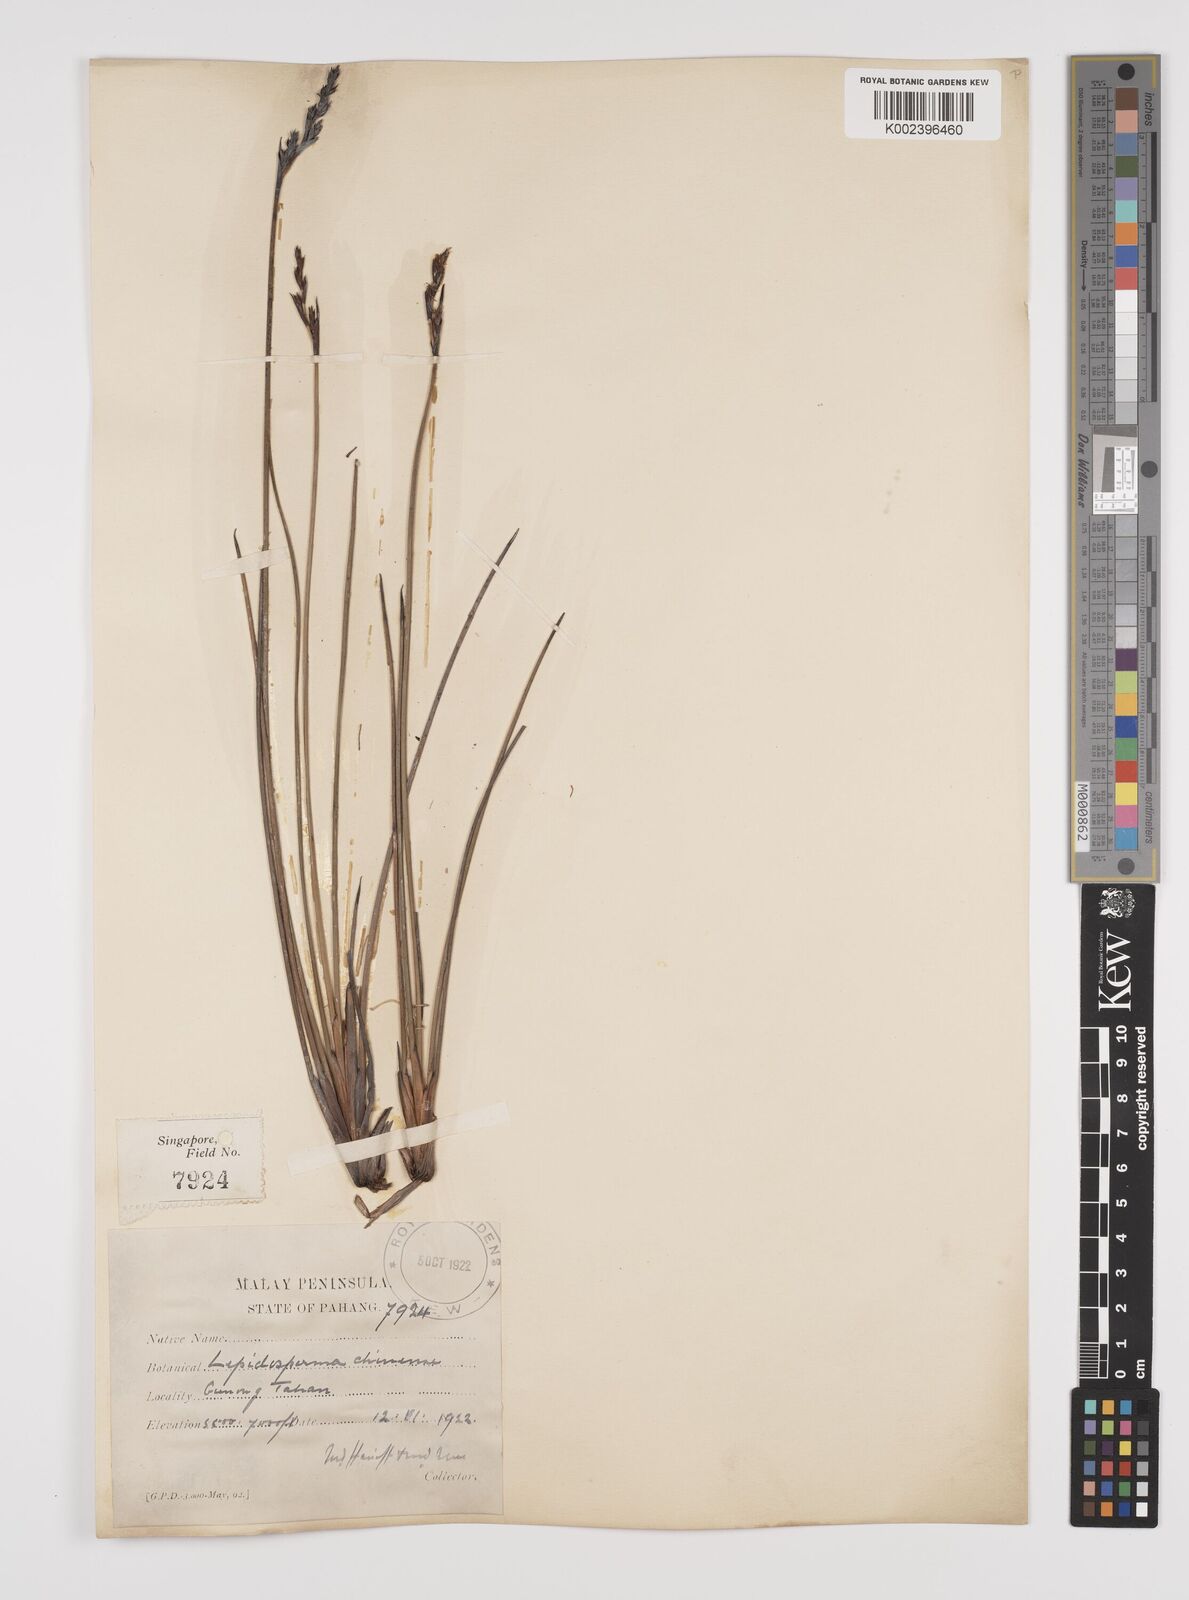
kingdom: Plantae
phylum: Tracheophyta
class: Liliopsida
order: Poales
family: Cyperaceae
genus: Lepidosperma
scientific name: Lepidosperma chinense
